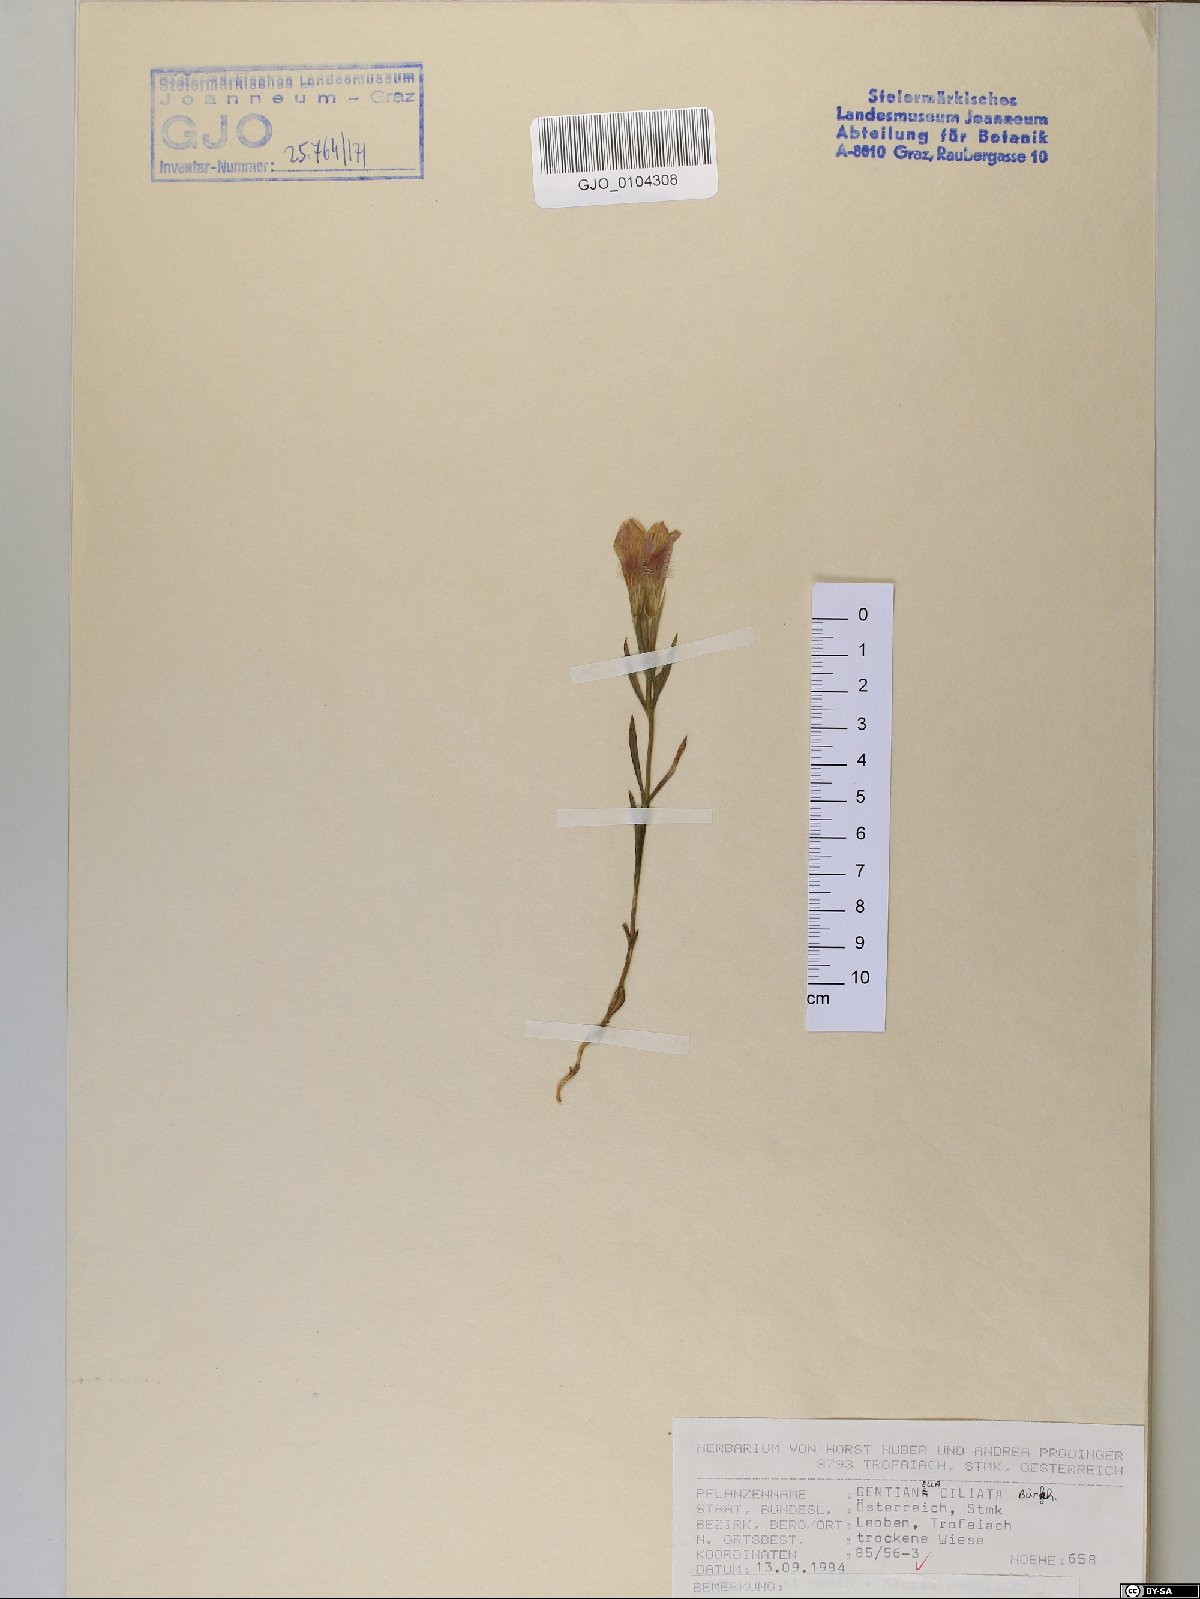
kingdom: Plantae
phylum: Tracheophyta
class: Magnoliopsida
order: Gentianales
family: Gentianaceae
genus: Gentianopsis
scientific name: Gentianopsis ciliata
